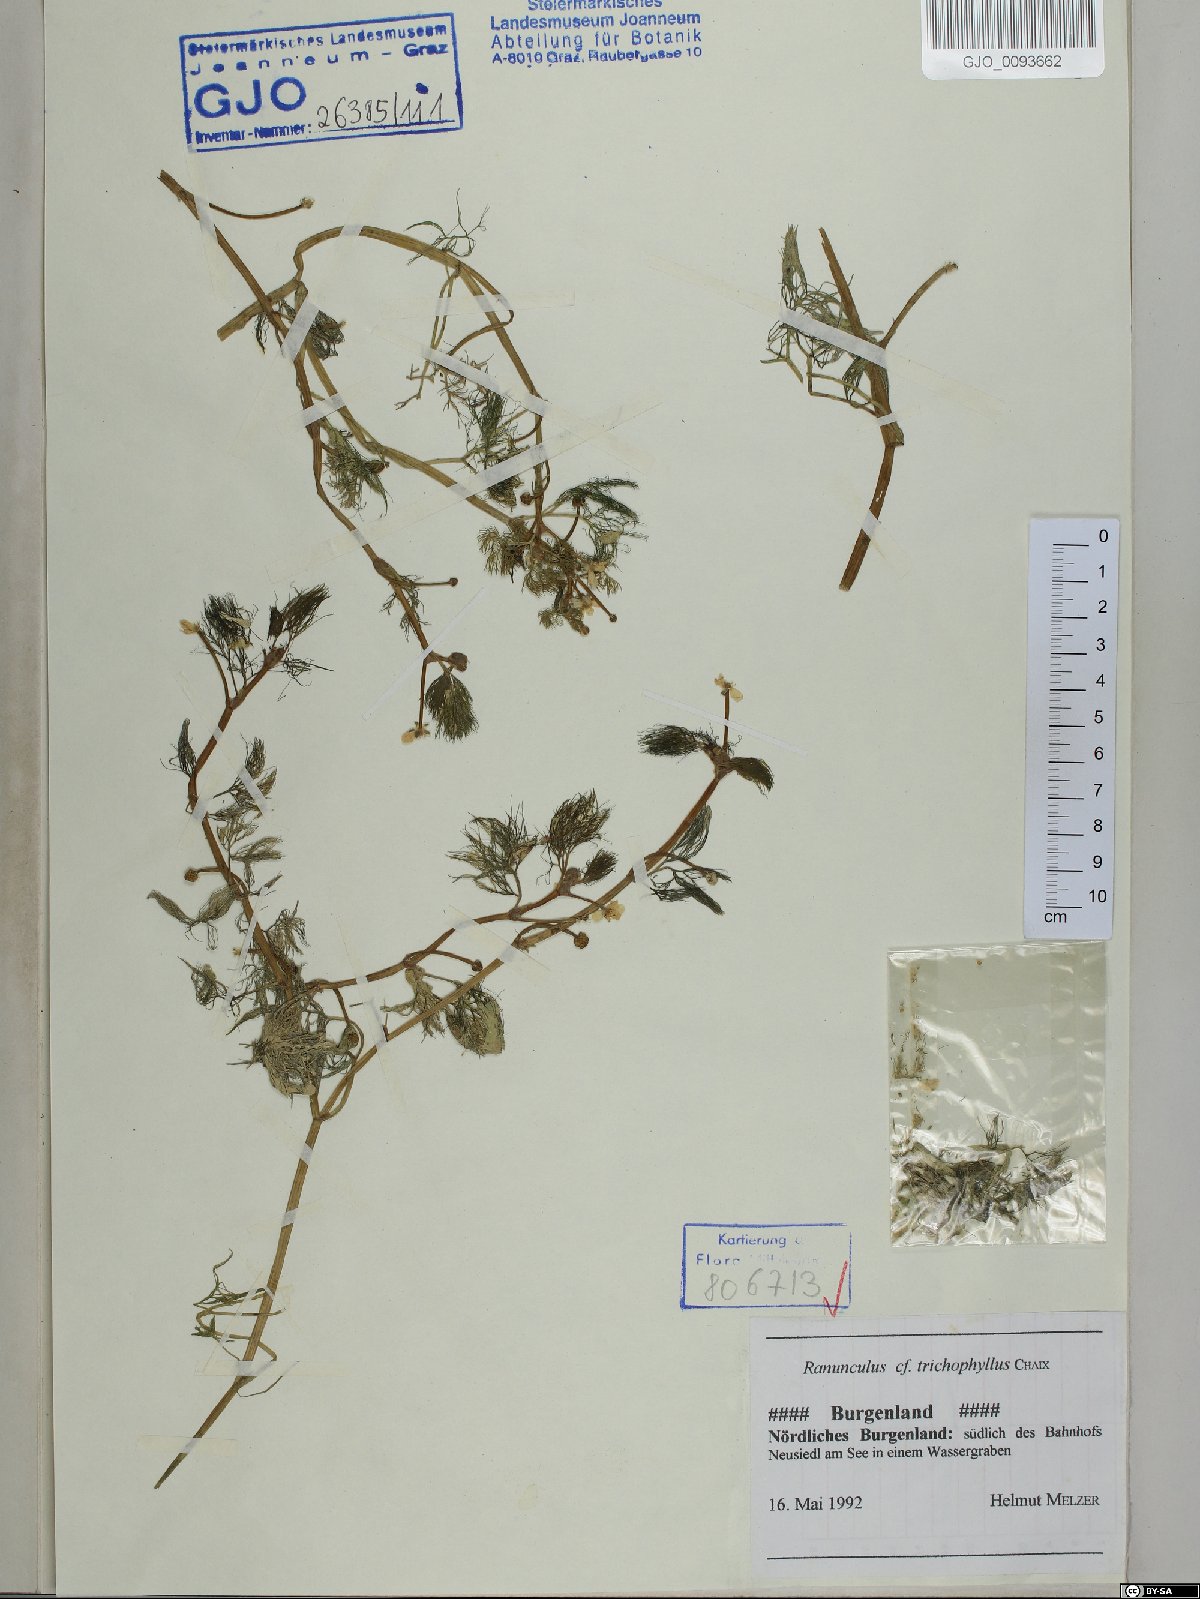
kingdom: Plantae
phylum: Tracheophyta
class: Magnoliopsida
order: Ranunculales
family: Ranunculaceae
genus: Ranunculus
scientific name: Ranunculus trichophyllus
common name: Thread-leaved water-crowfoot
